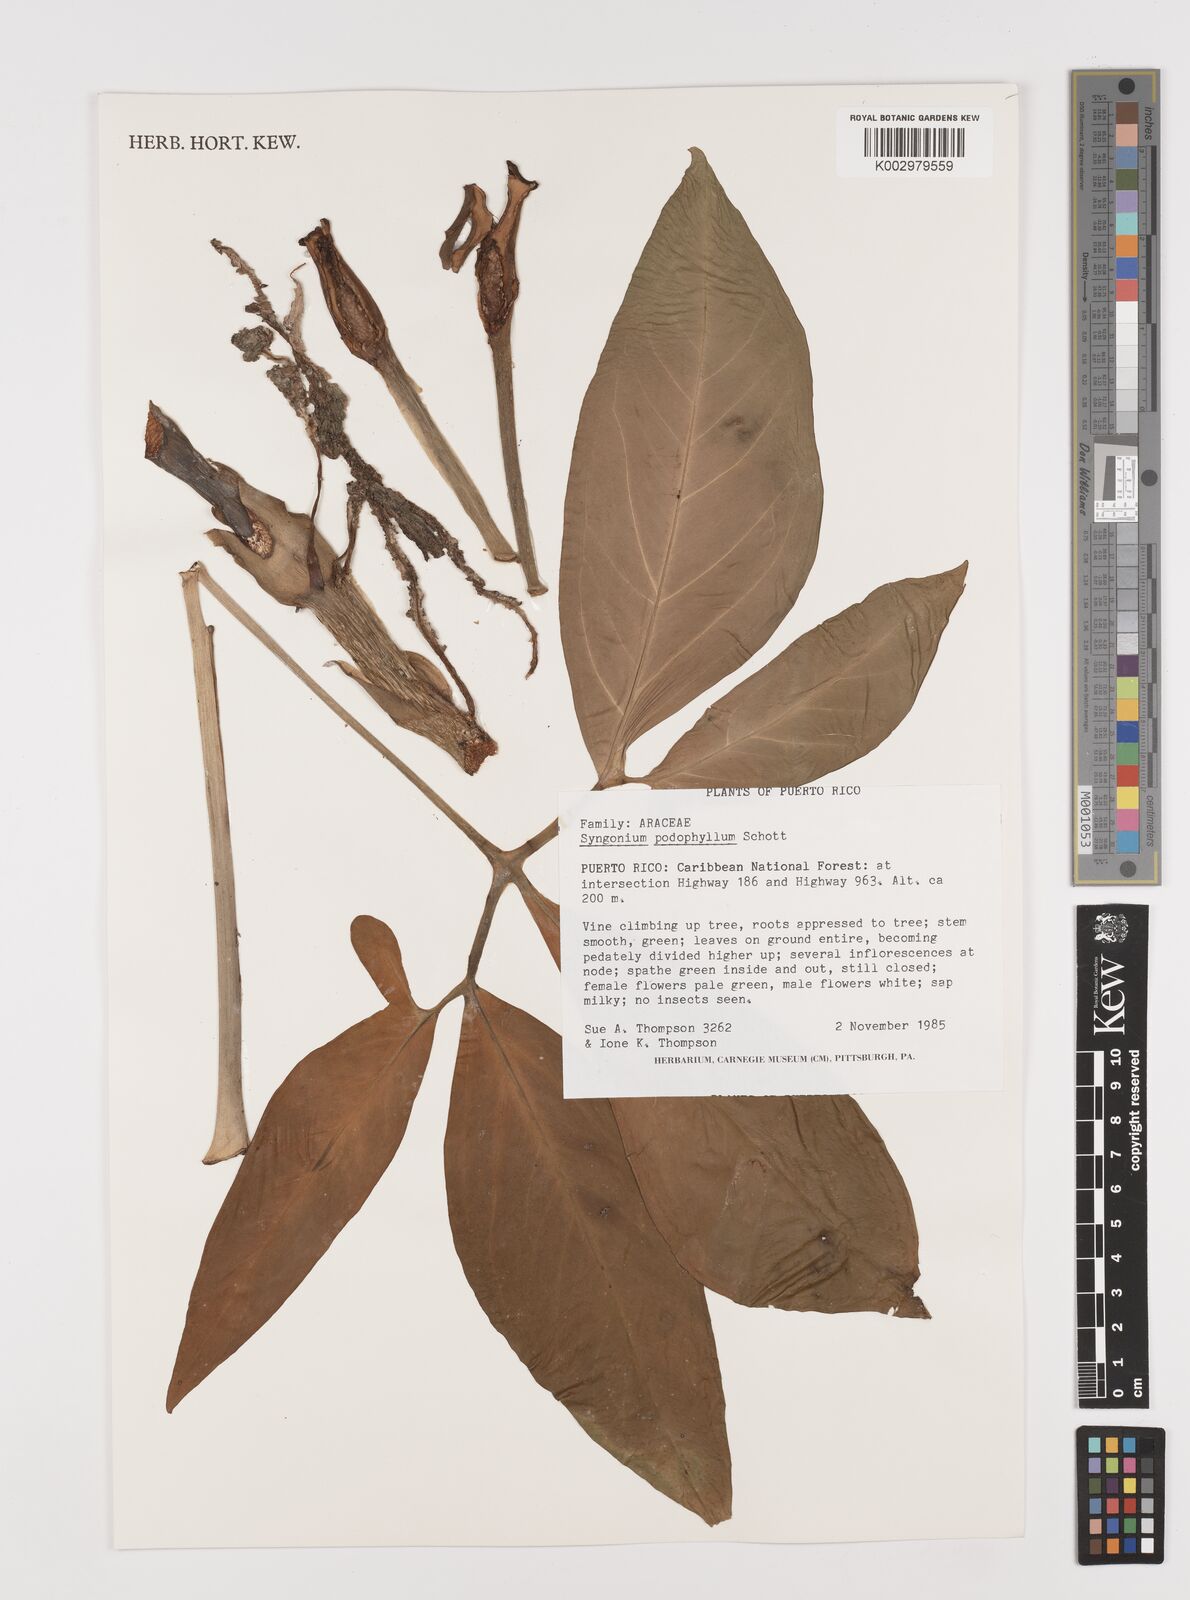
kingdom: Plantae
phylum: Tracheophyta
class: Liliopsida
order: Alismatales
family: Araceae
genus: Syngonium
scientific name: Syngonium podophyllum
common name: American evergreen
